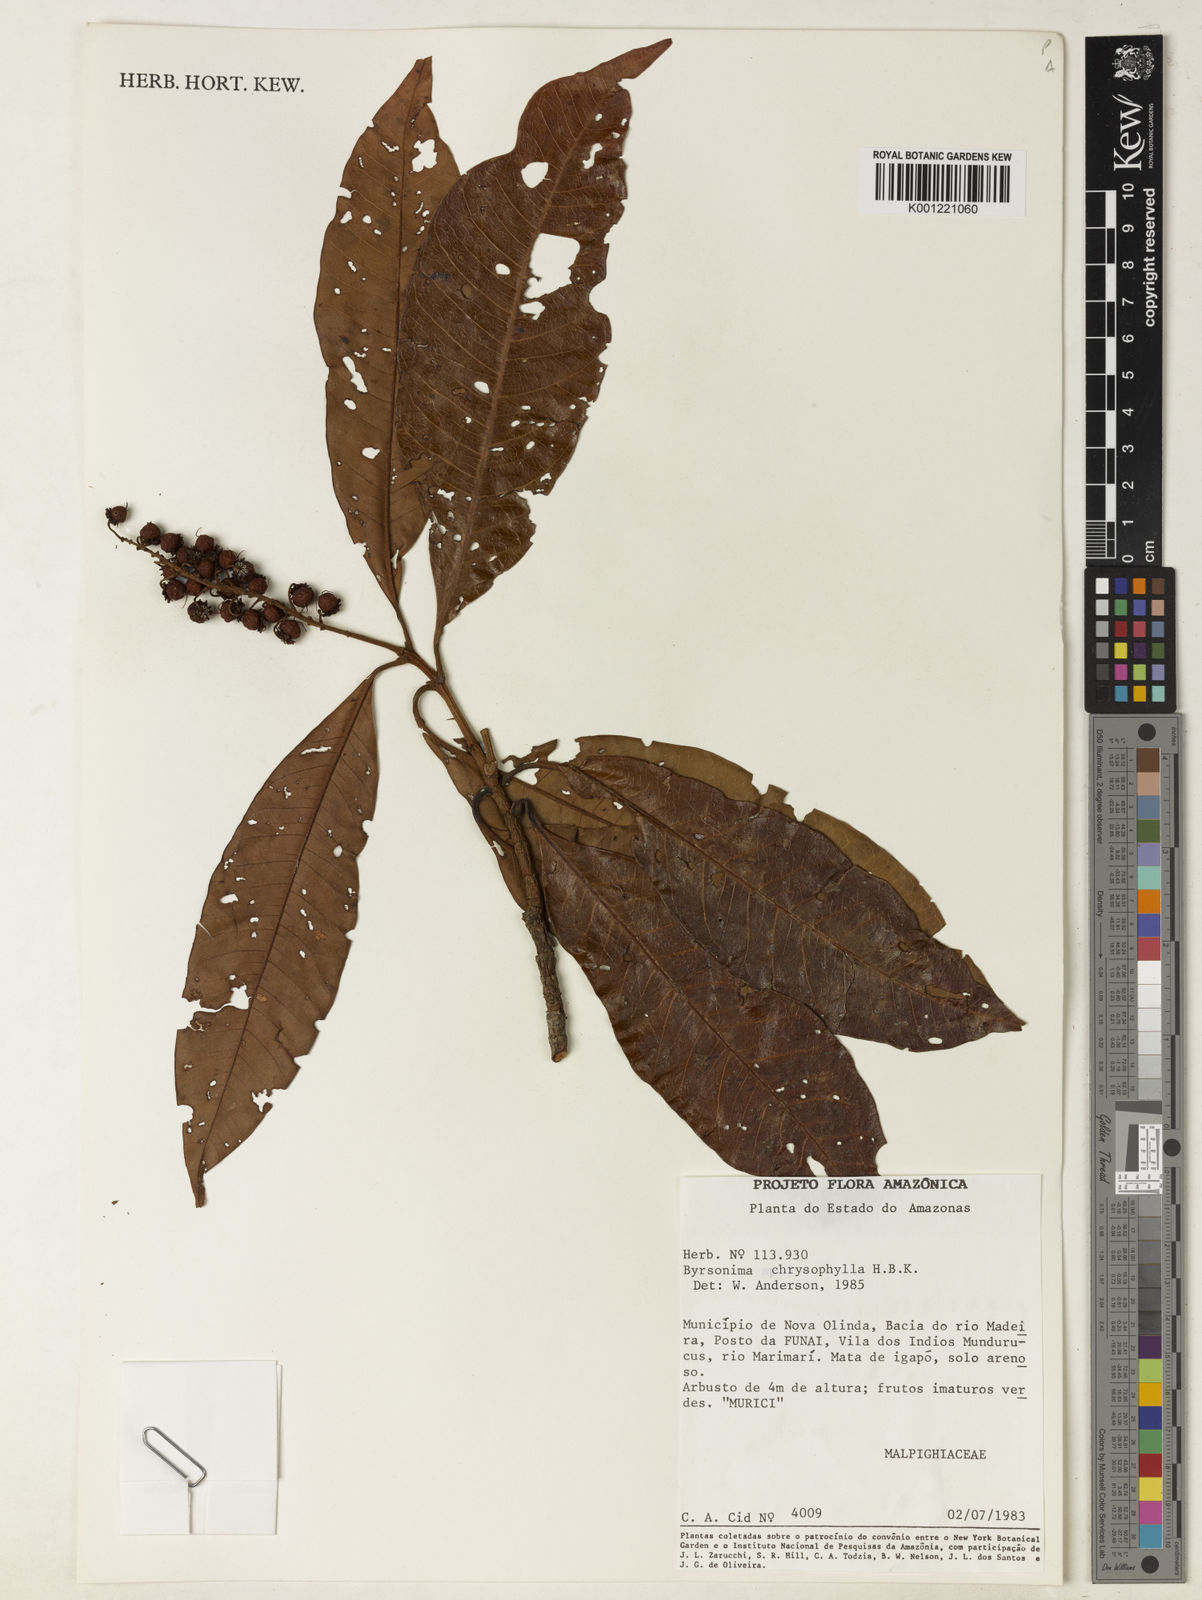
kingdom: Plantae
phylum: Tracheophyta
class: Magnoliopsida
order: Malpighiales
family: Malpighiaceae
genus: Byrsonima
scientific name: Byrsonima chrysophylla
